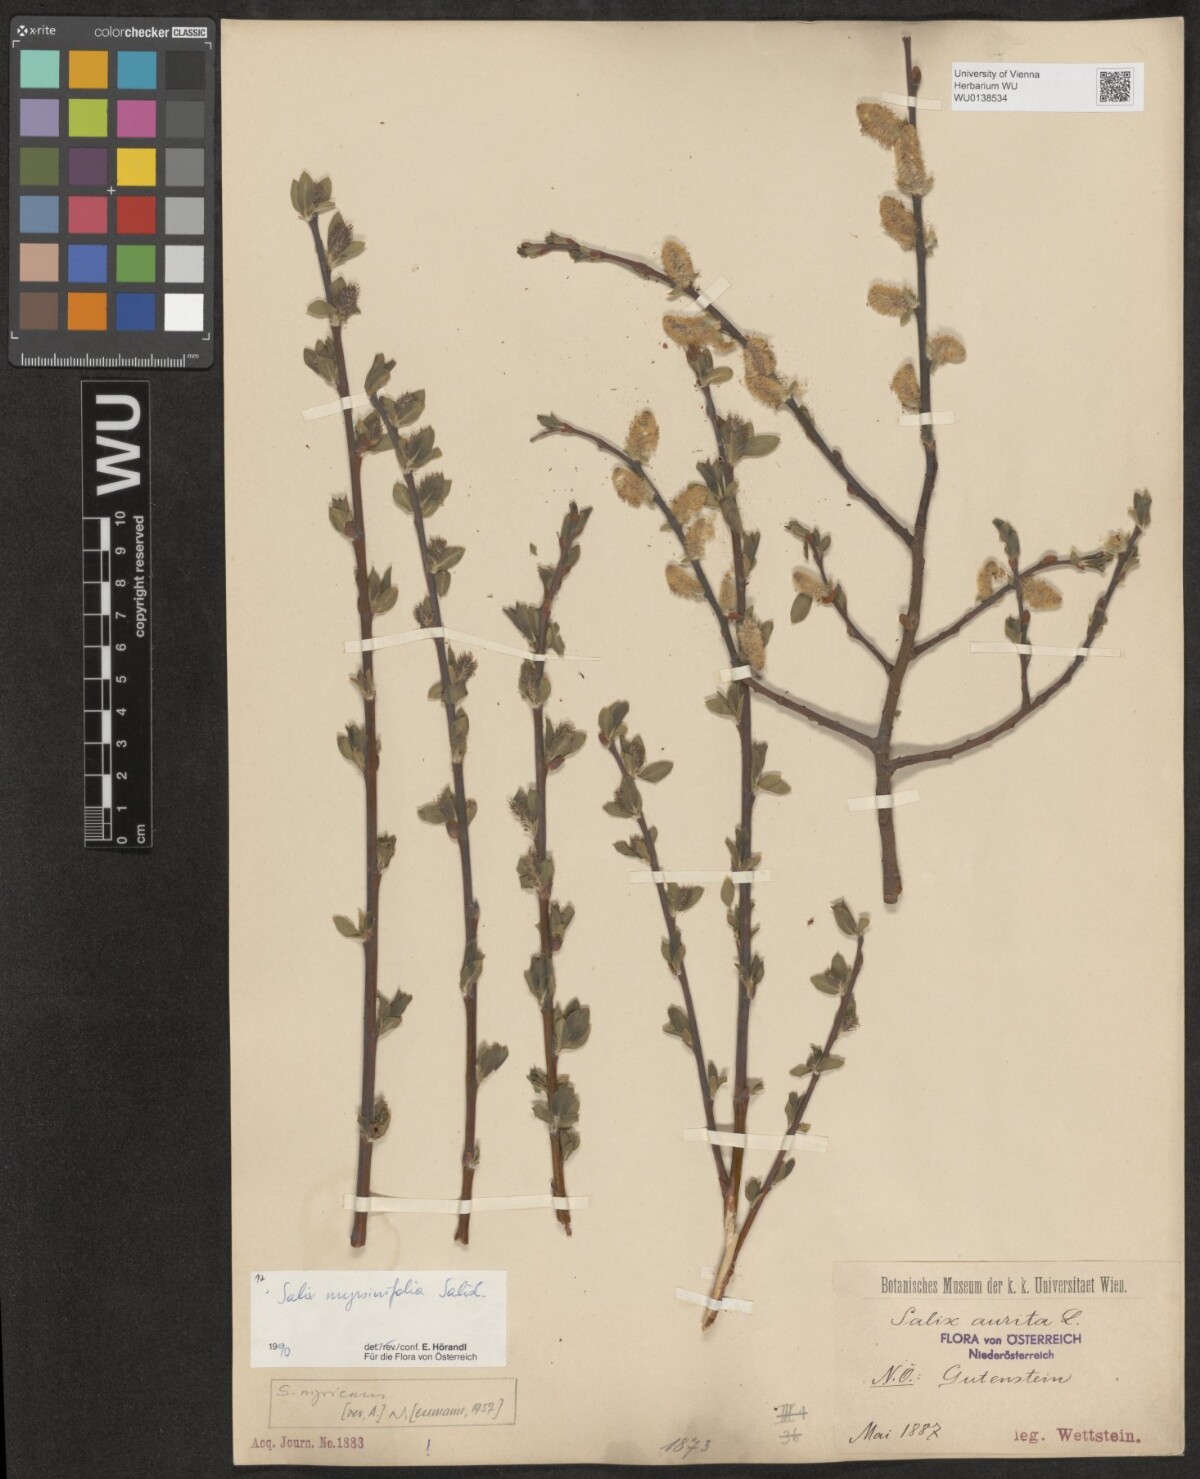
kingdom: Plantae
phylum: Tracheophyta
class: Magnoliopsida
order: Malpighiales
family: Salicaceae
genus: Salix
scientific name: Salix myrsinifolia
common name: Dark-leaved willow
